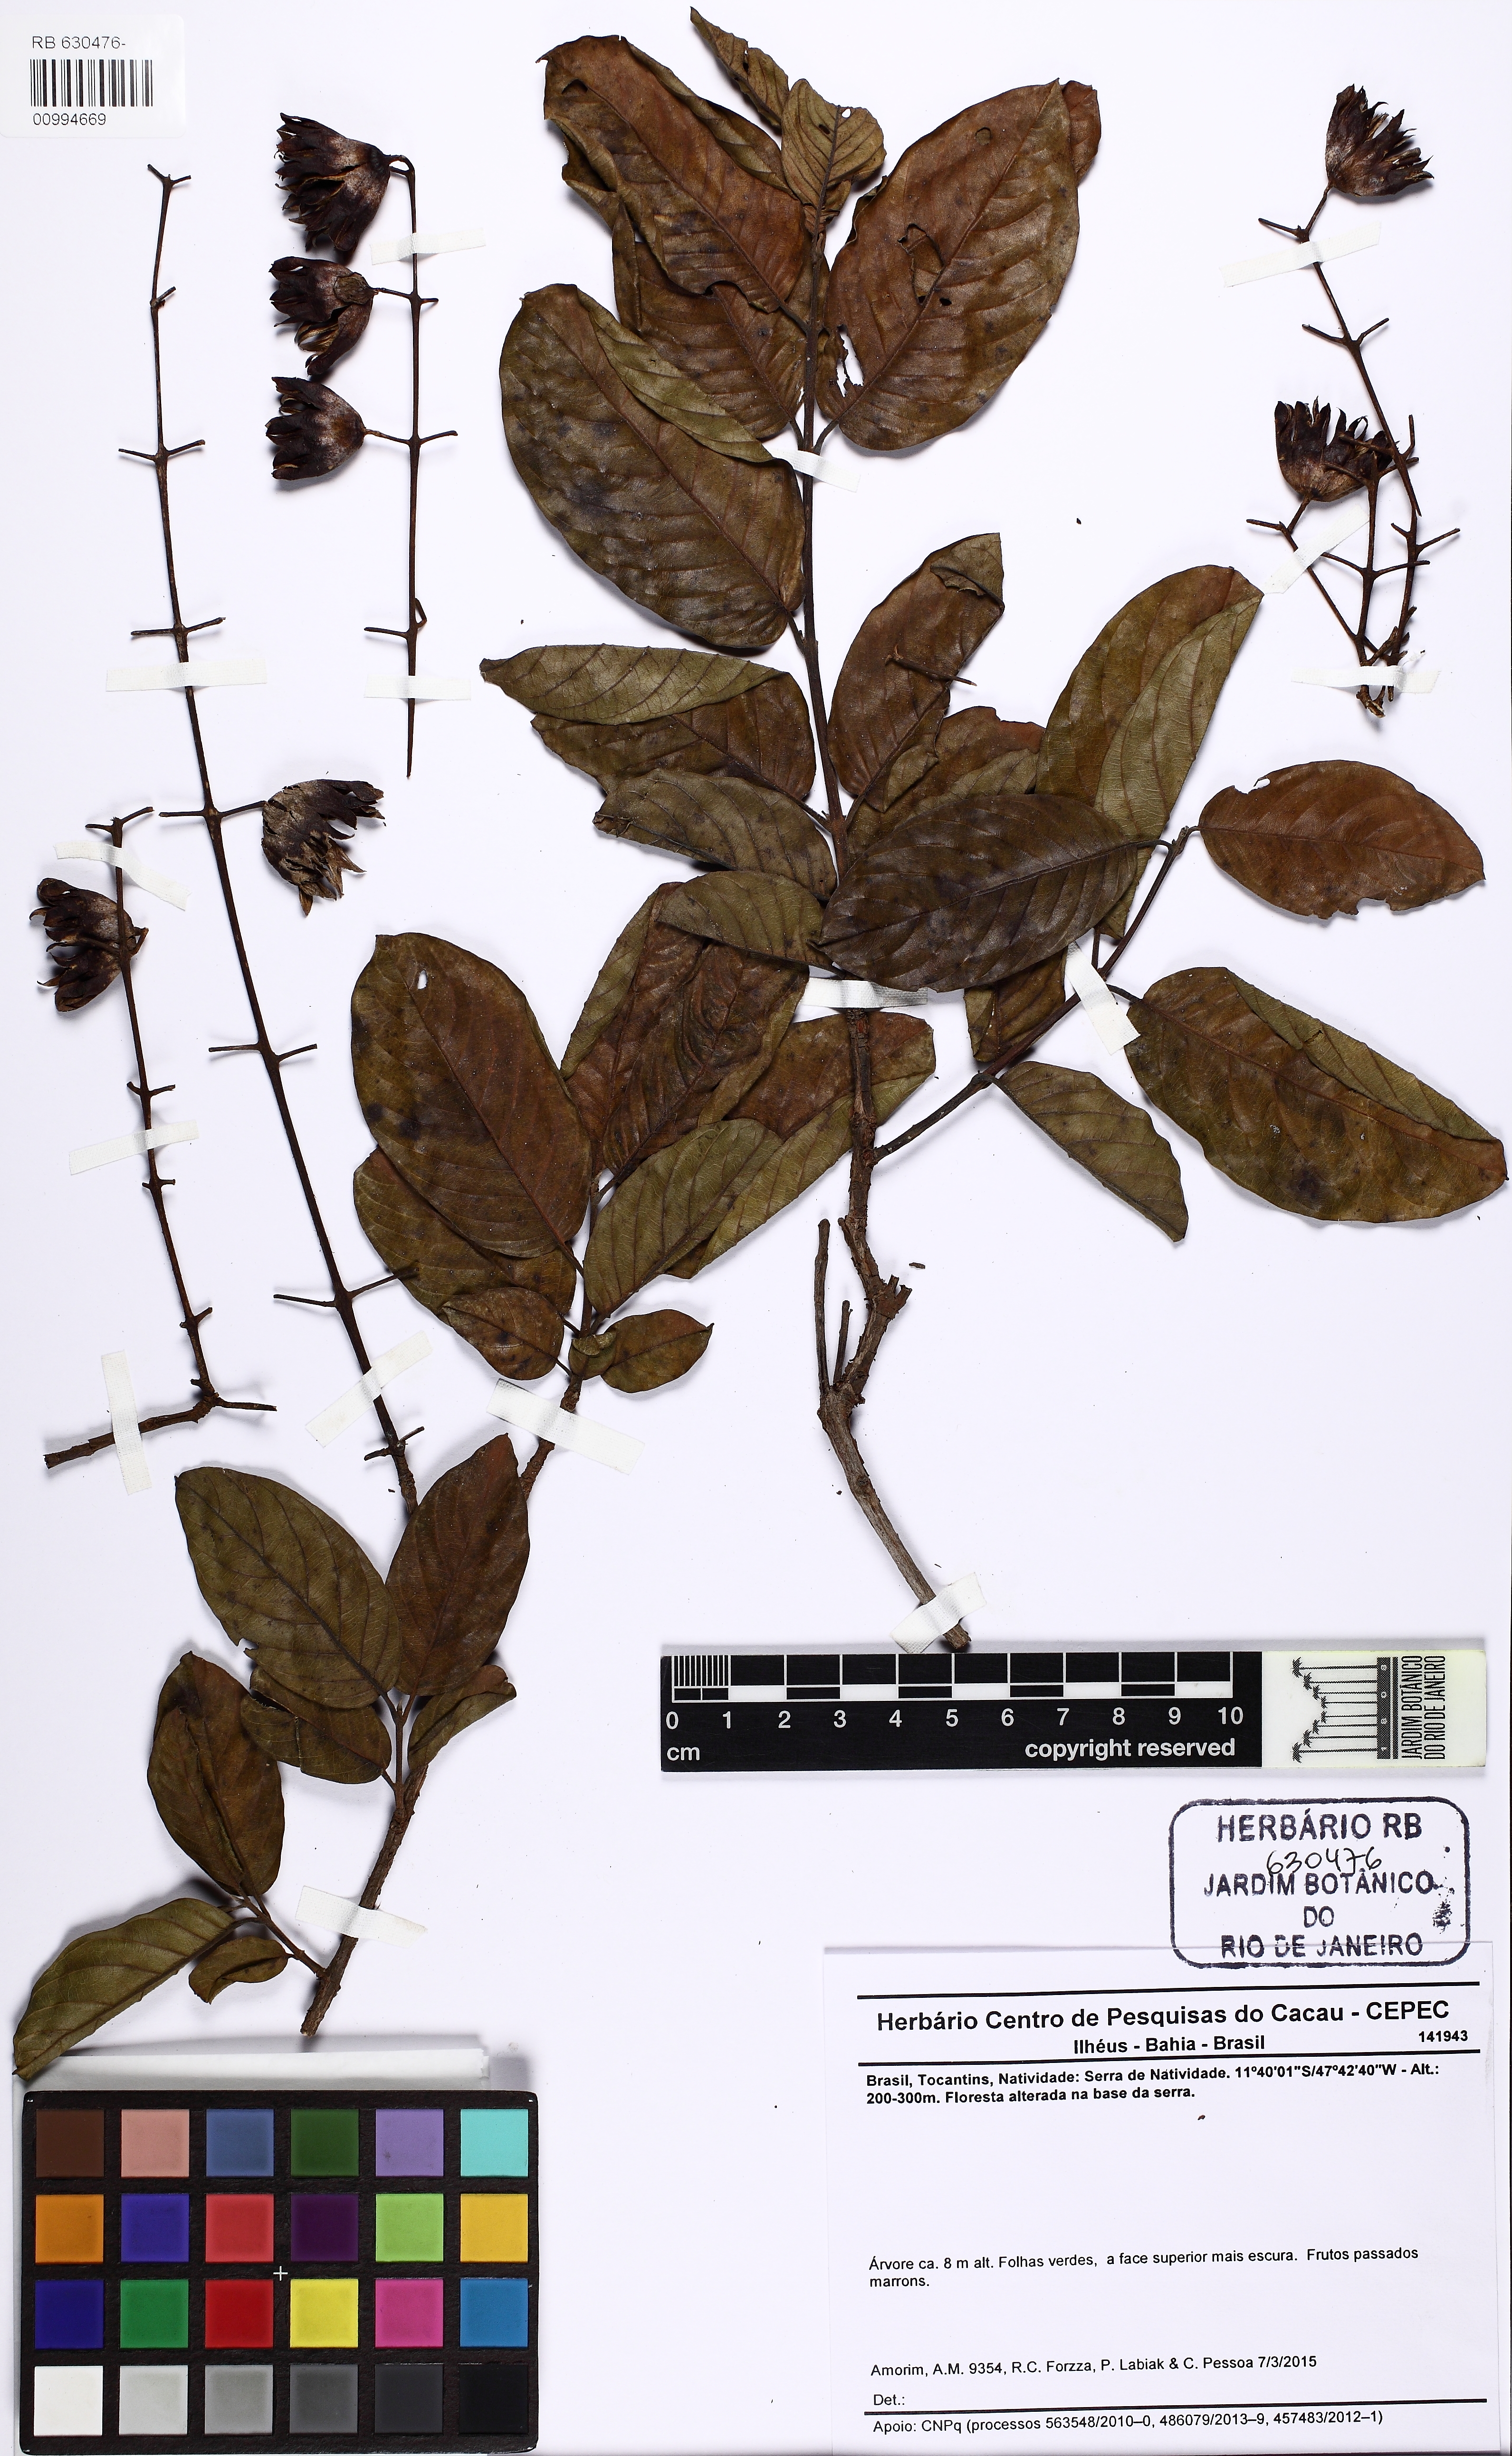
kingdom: Plantae
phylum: Tracheophyta
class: Magnoliopsida
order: Myrtales
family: Lythraceae
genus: Physocalymma
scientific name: Physocalymma scaberrimum
